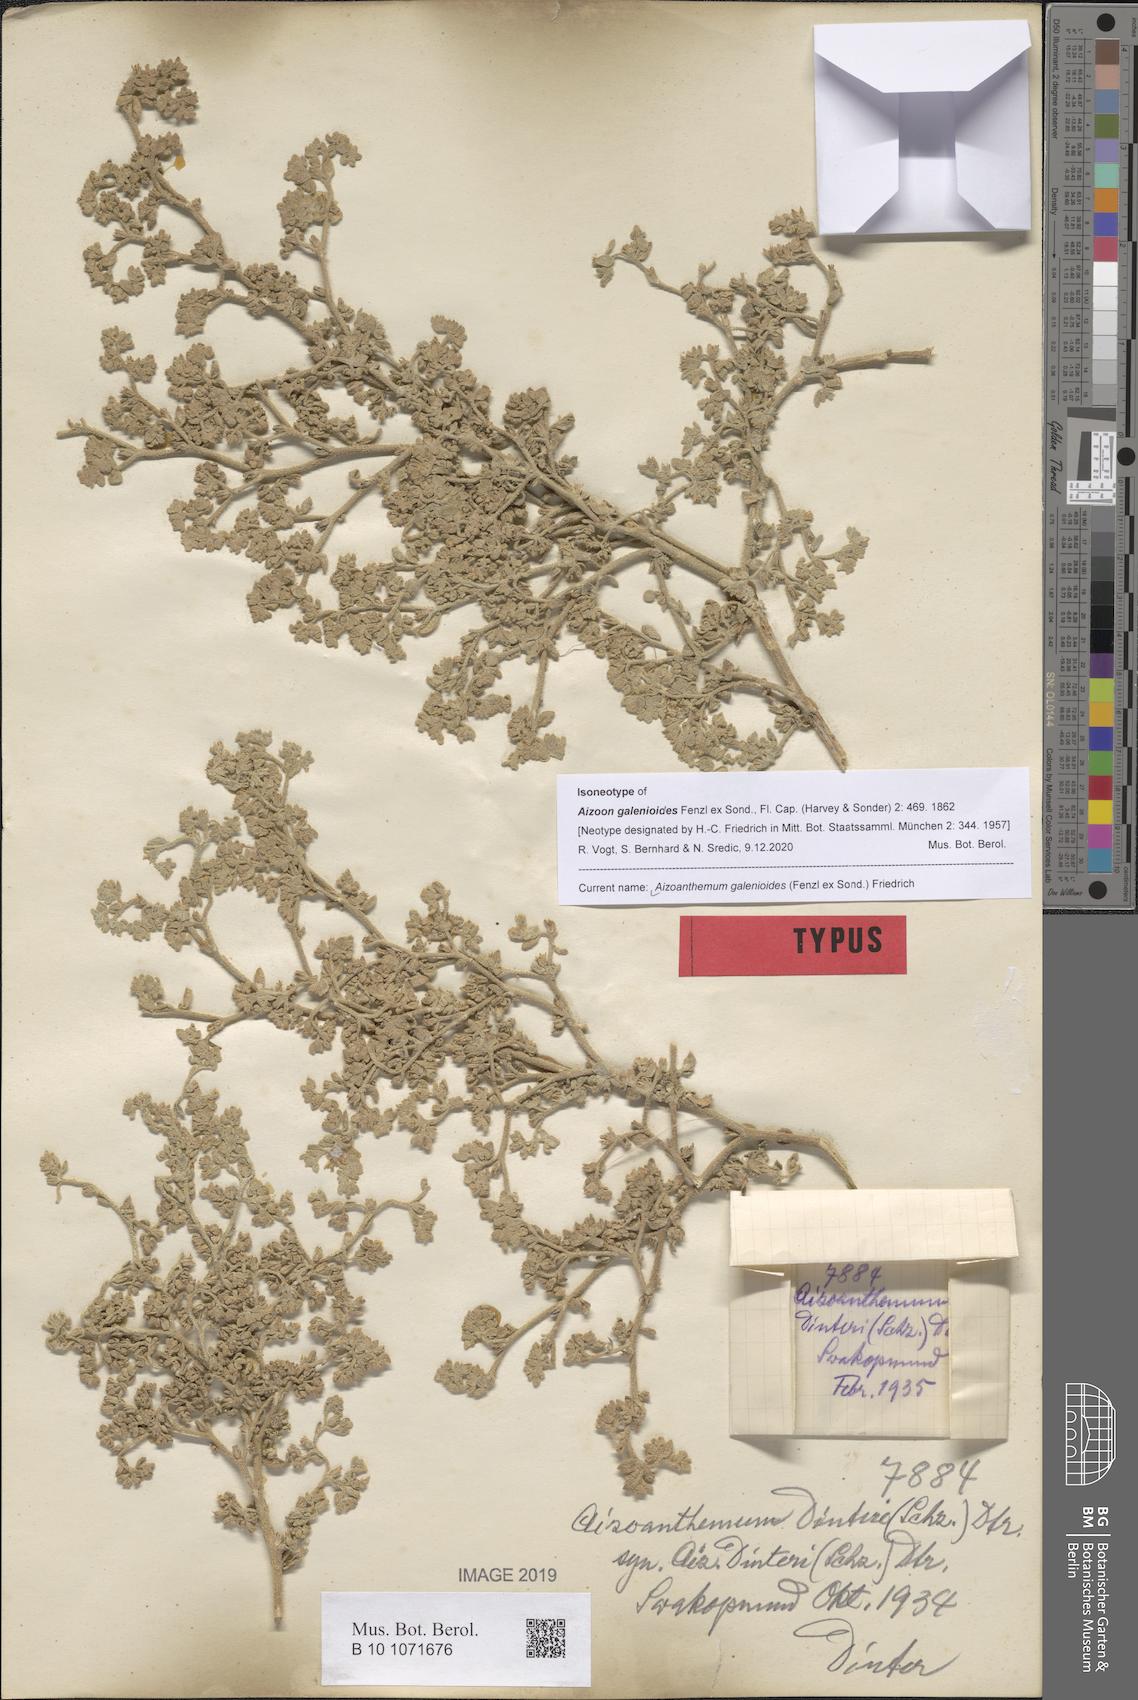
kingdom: Plantae
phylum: Tracheophyta
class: Magnoliopsida
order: Caryophyllales
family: Aizoaceae
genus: Aizoanthemum
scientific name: Aizoanthemum galenioides
